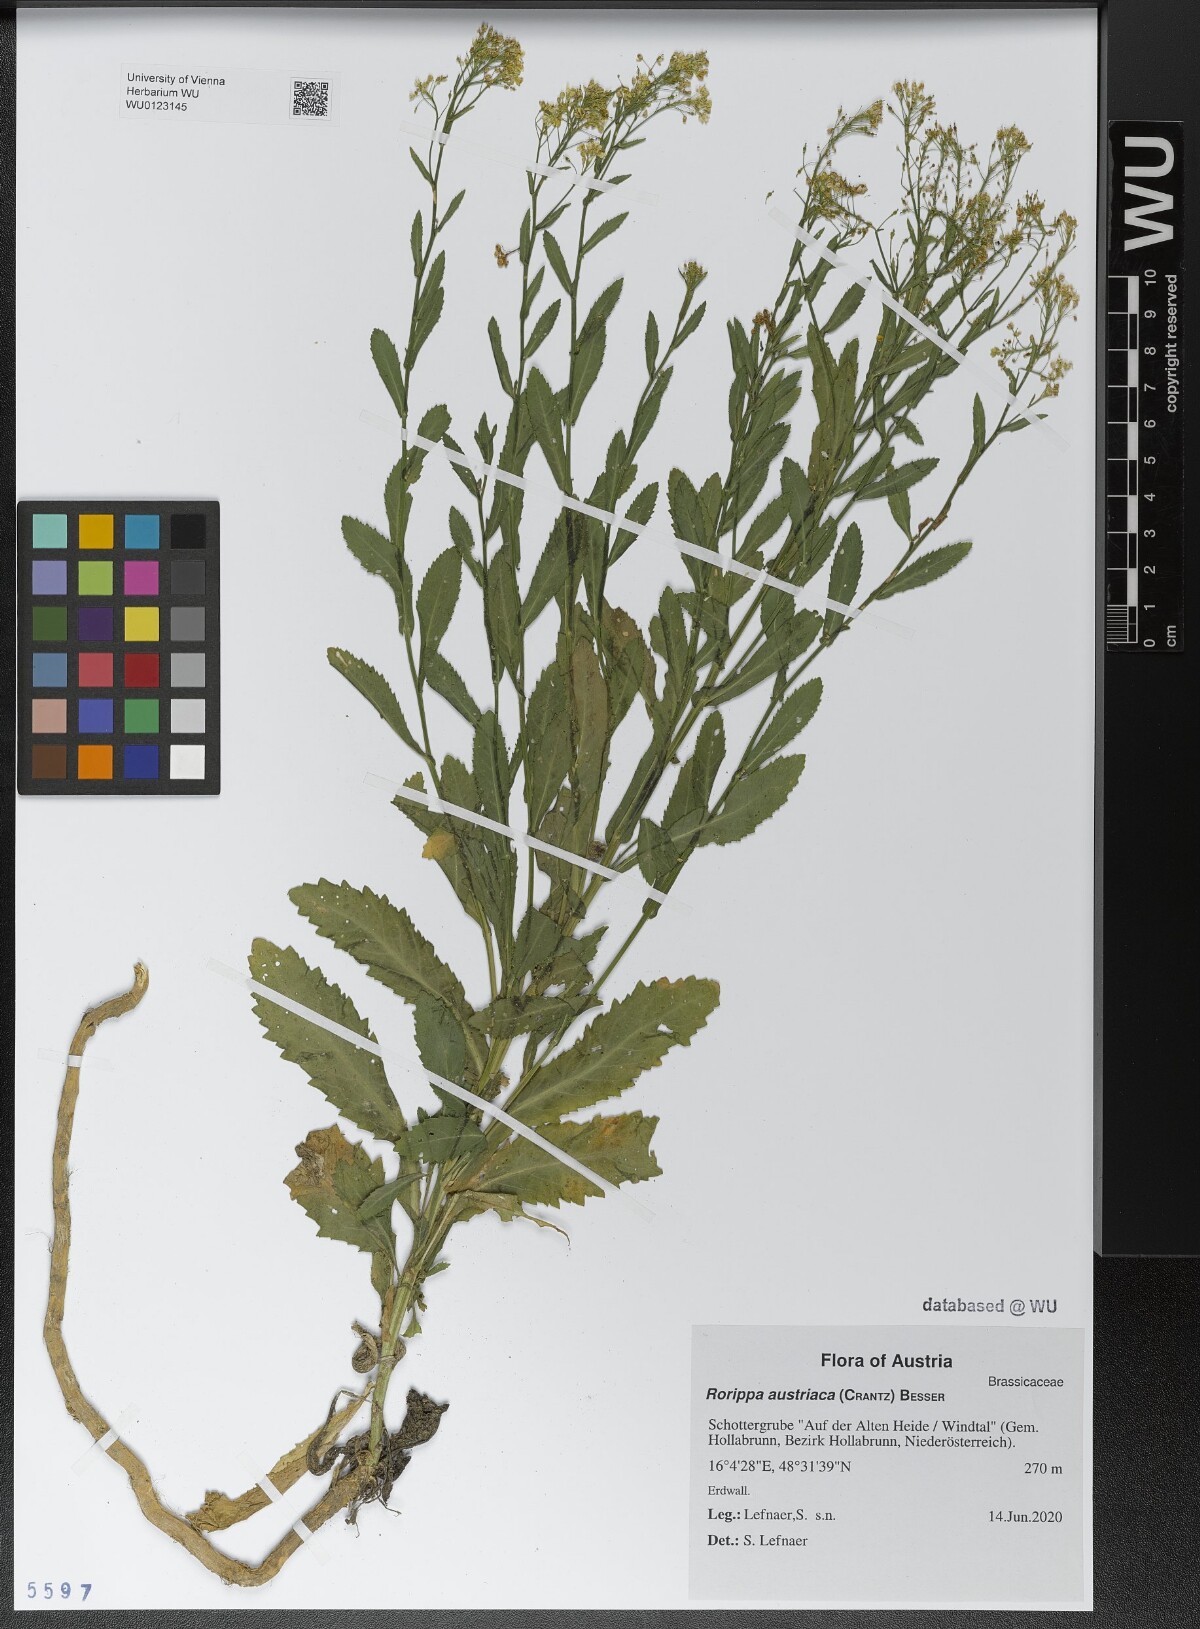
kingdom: Plantae
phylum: Tracheophyta
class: Magnoliopsida
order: Brassicales
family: Brassicaceae
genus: Rorippa
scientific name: Rorippa austriaca
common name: Austrian yellow-cress
